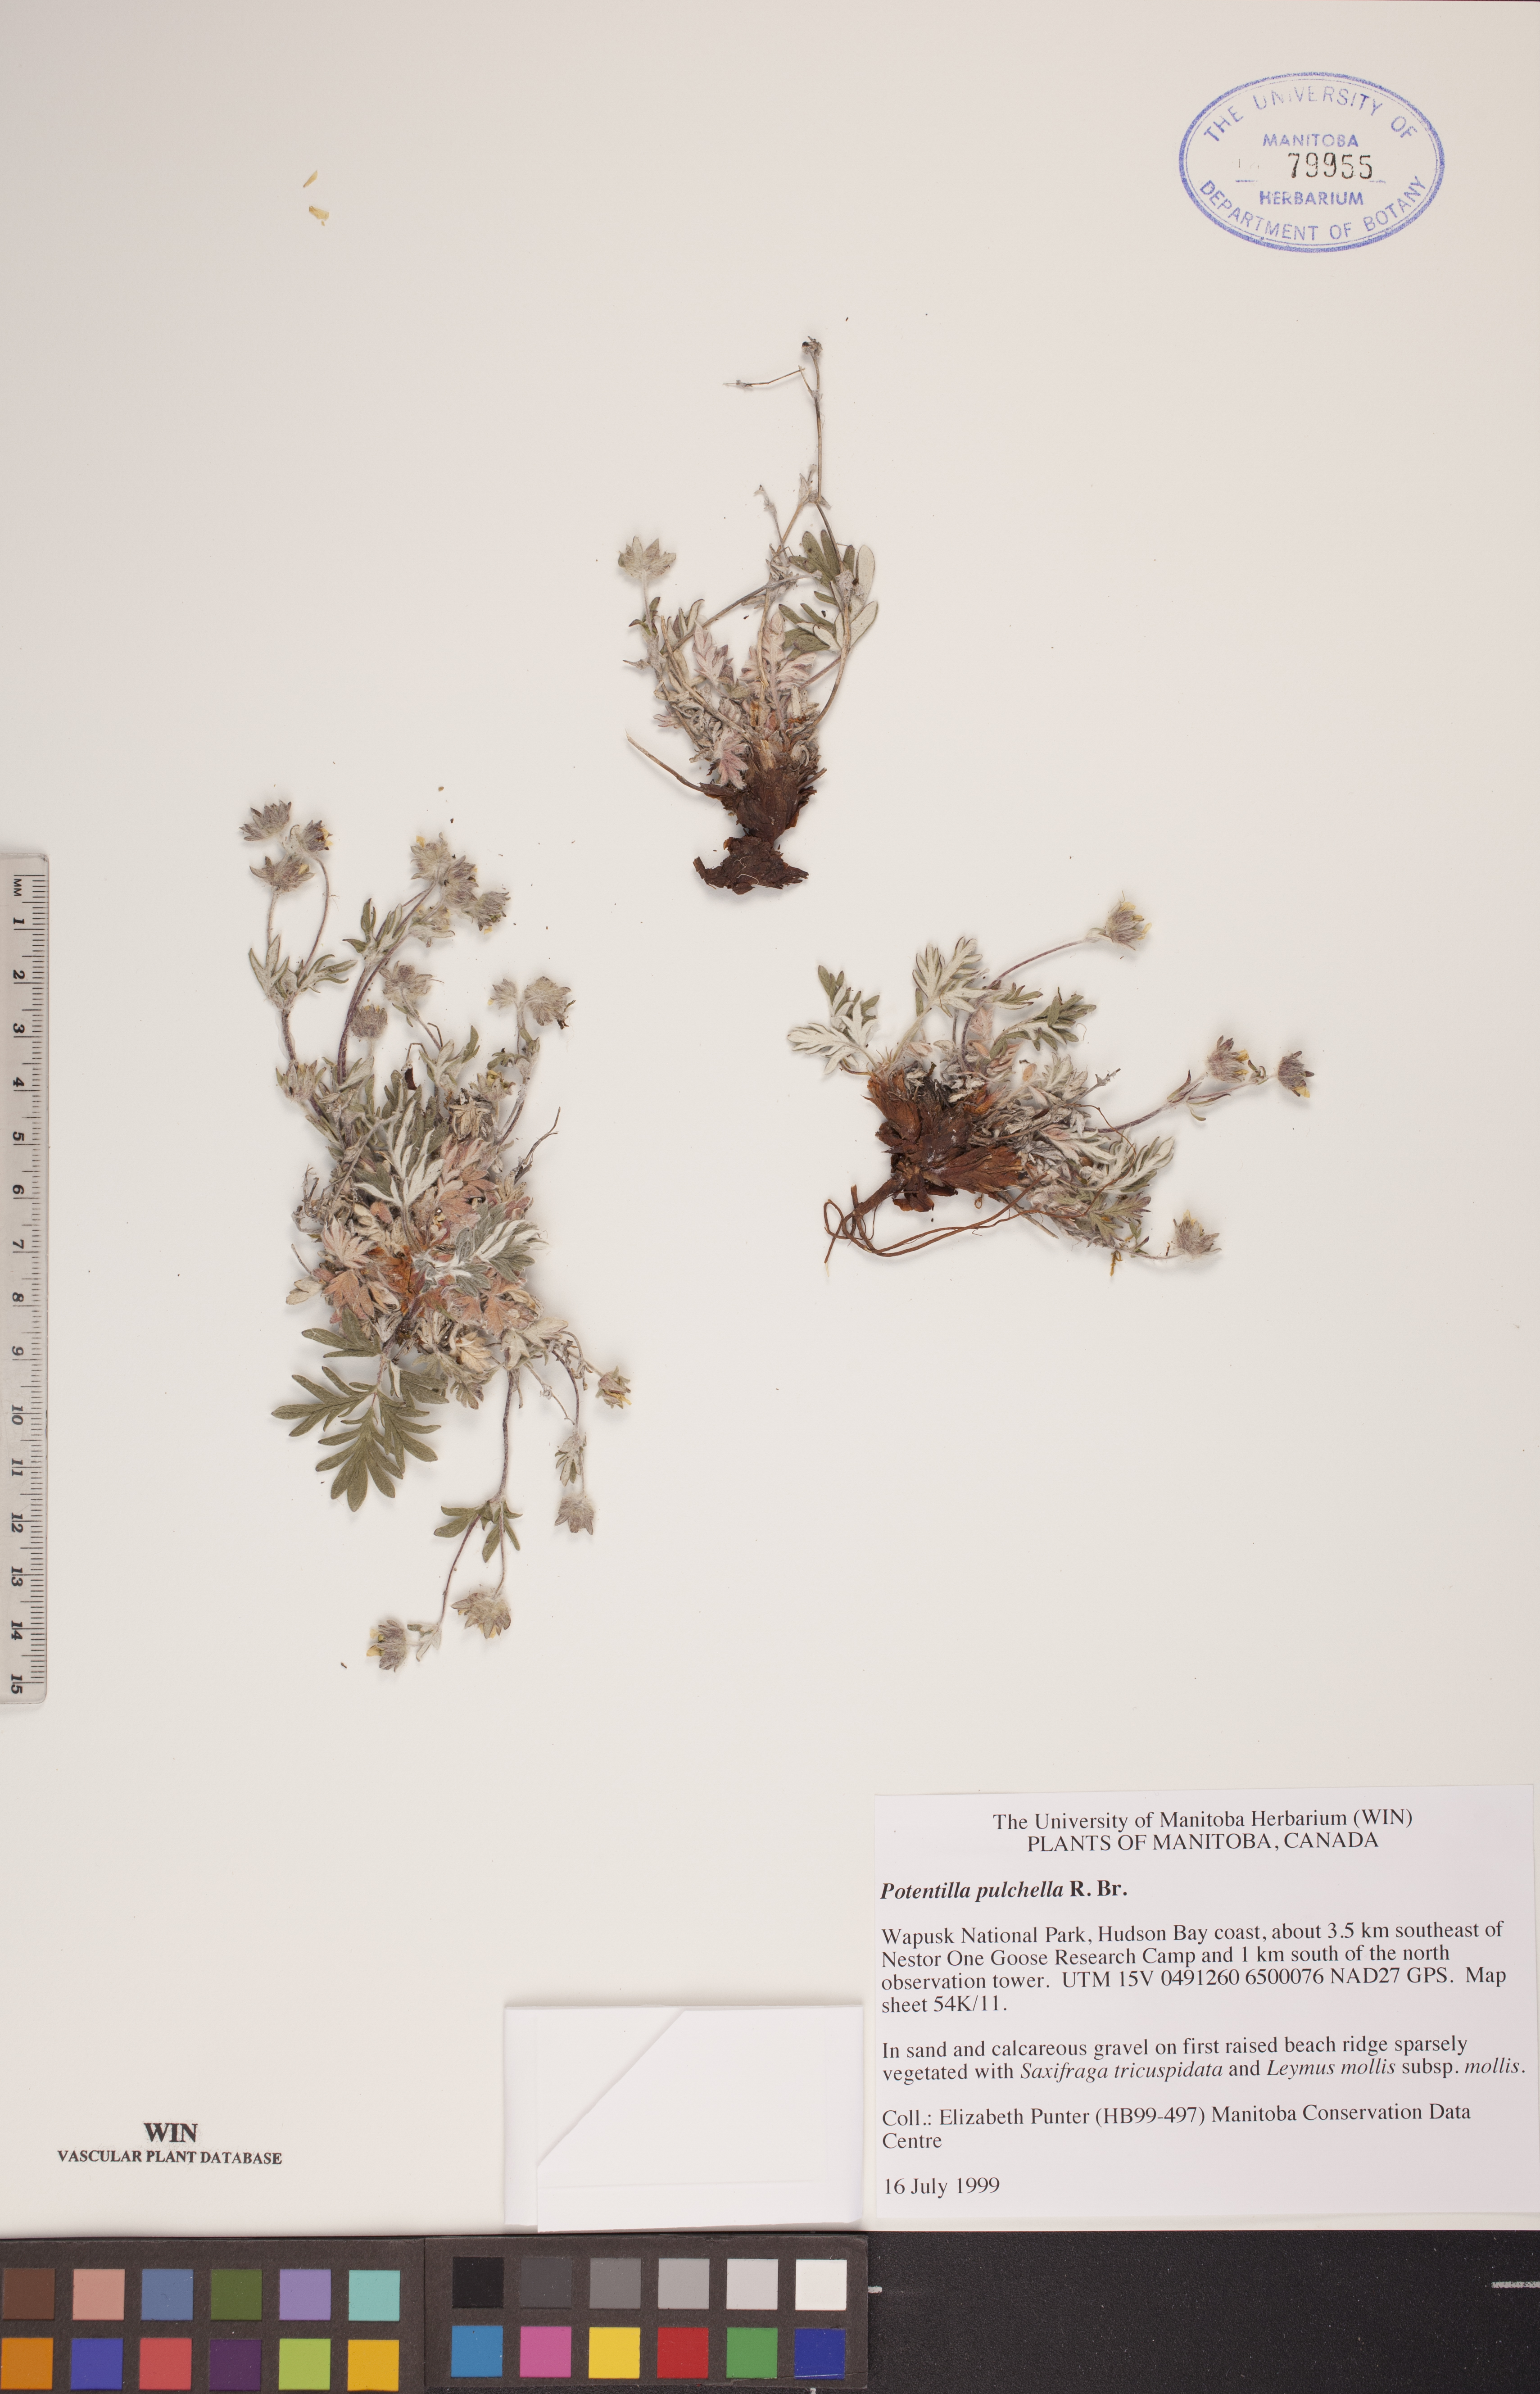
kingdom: Plantae
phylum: Tracheophyta
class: Magnoliopsida
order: Rosales
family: Rosaceae
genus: Potentilla
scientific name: Potentilla pulchella
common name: Pretty cinquefoil
